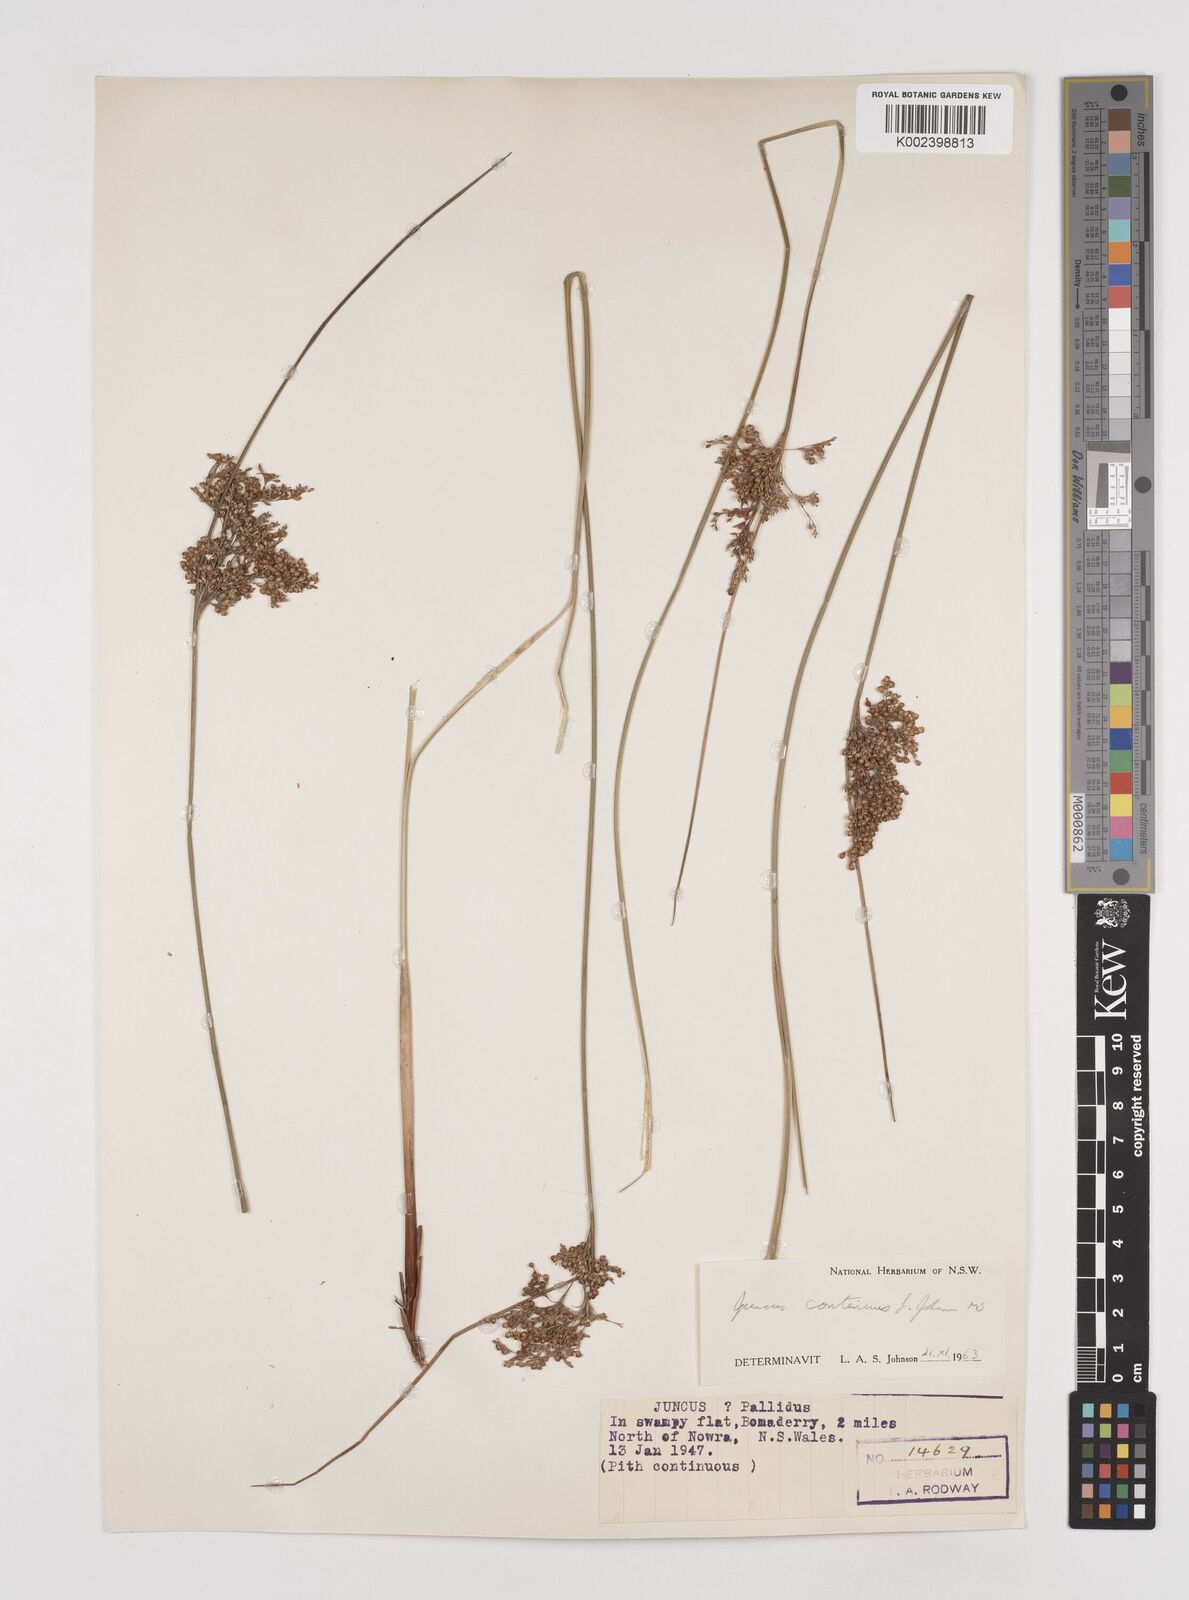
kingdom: Plantae
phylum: Tracheophyta
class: Liliopsida
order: Poales
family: Juncaceae
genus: Juncus
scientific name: Juncus continuus
